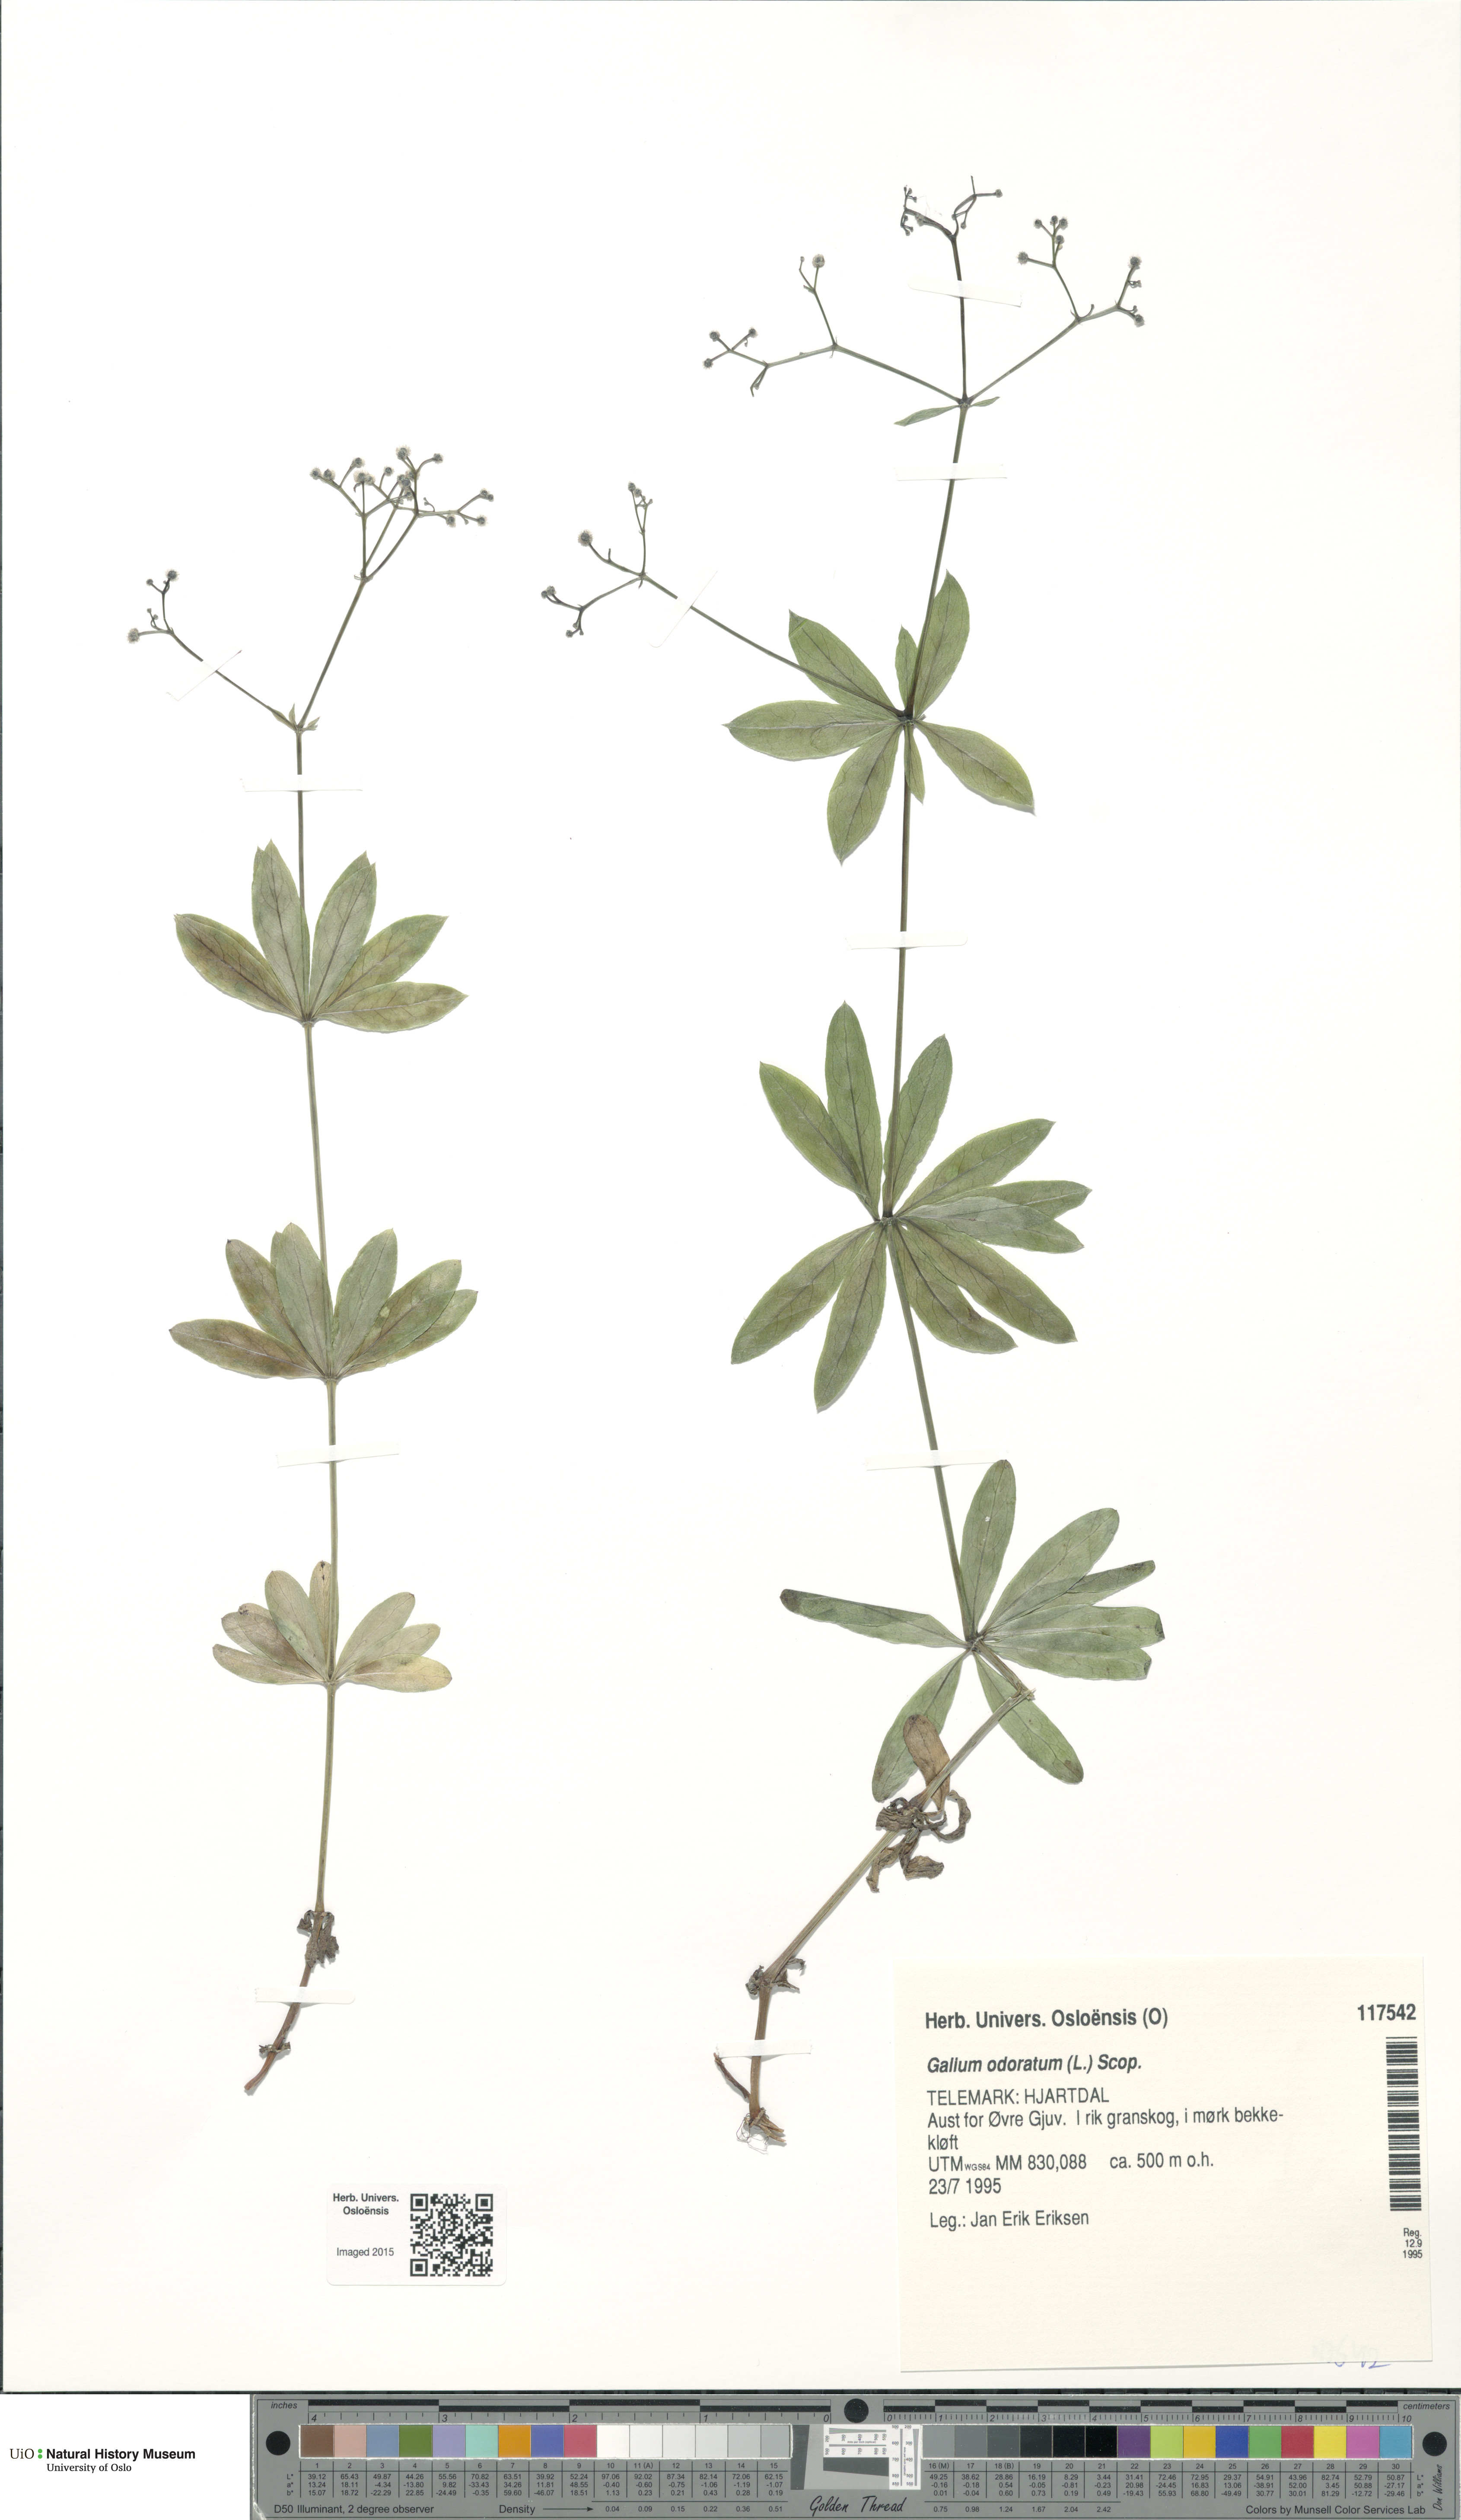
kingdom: Plantae
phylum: Tracheophyta
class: Magnoliopsida
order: Gentianales
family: Rubiaceae
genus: Galium
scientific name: Galium odoratum
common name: Sweet woodruff
